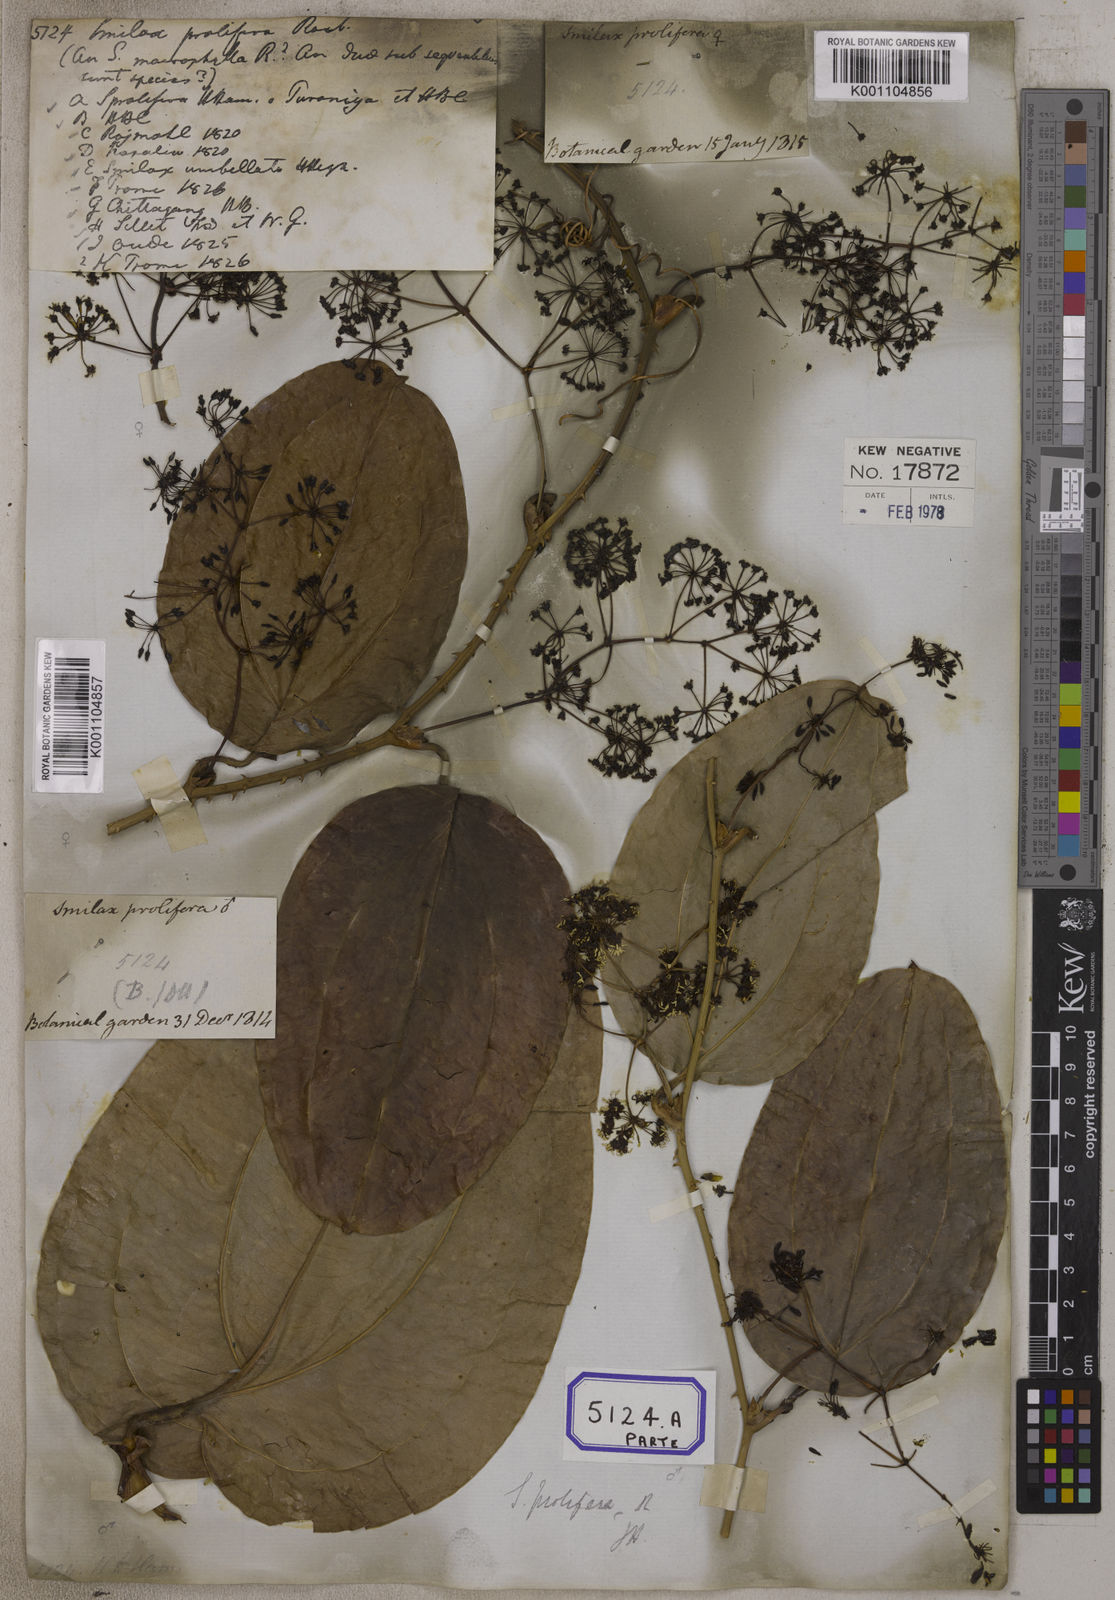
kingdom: Plantae
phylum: Tracheophyta
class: Liliopsida
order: Liliales
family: Smilacaceae
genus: Smilax
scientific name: Smilax prolifera
